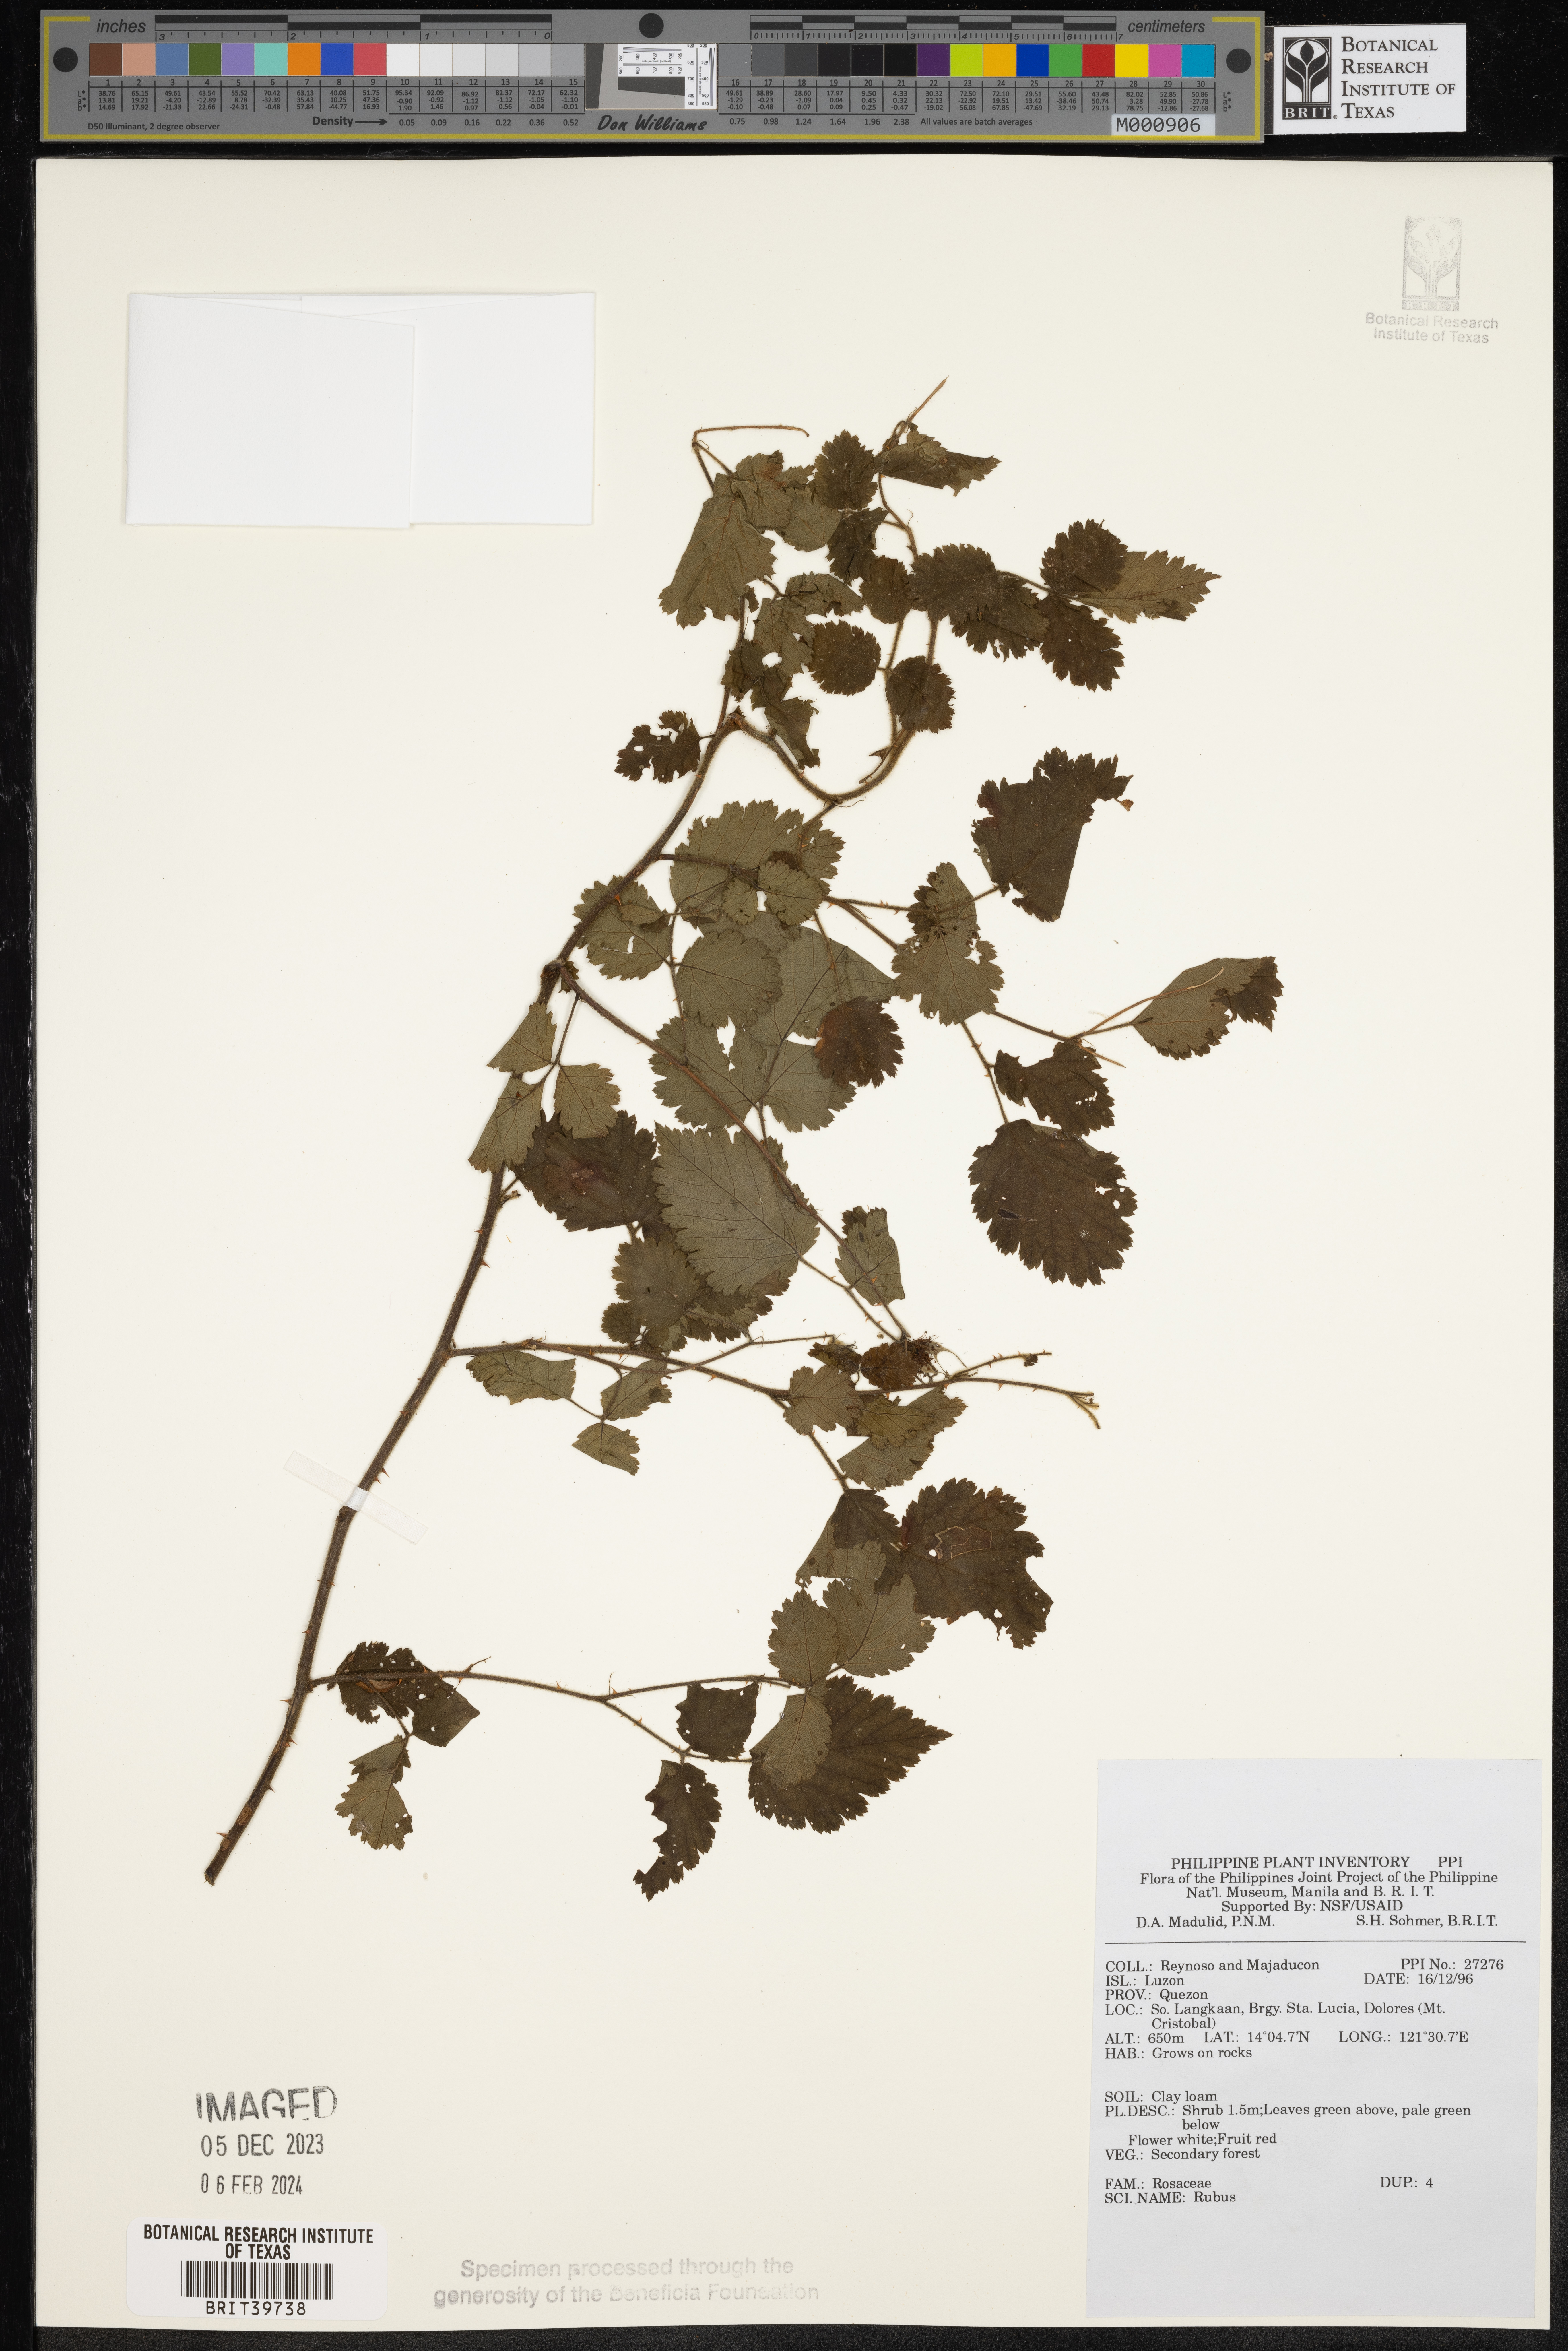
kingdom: Plantae
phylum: Tracheophyta
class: Magnoliopsida
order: Rosales
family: Rosaceae
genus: Rubus
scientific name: Rubus
